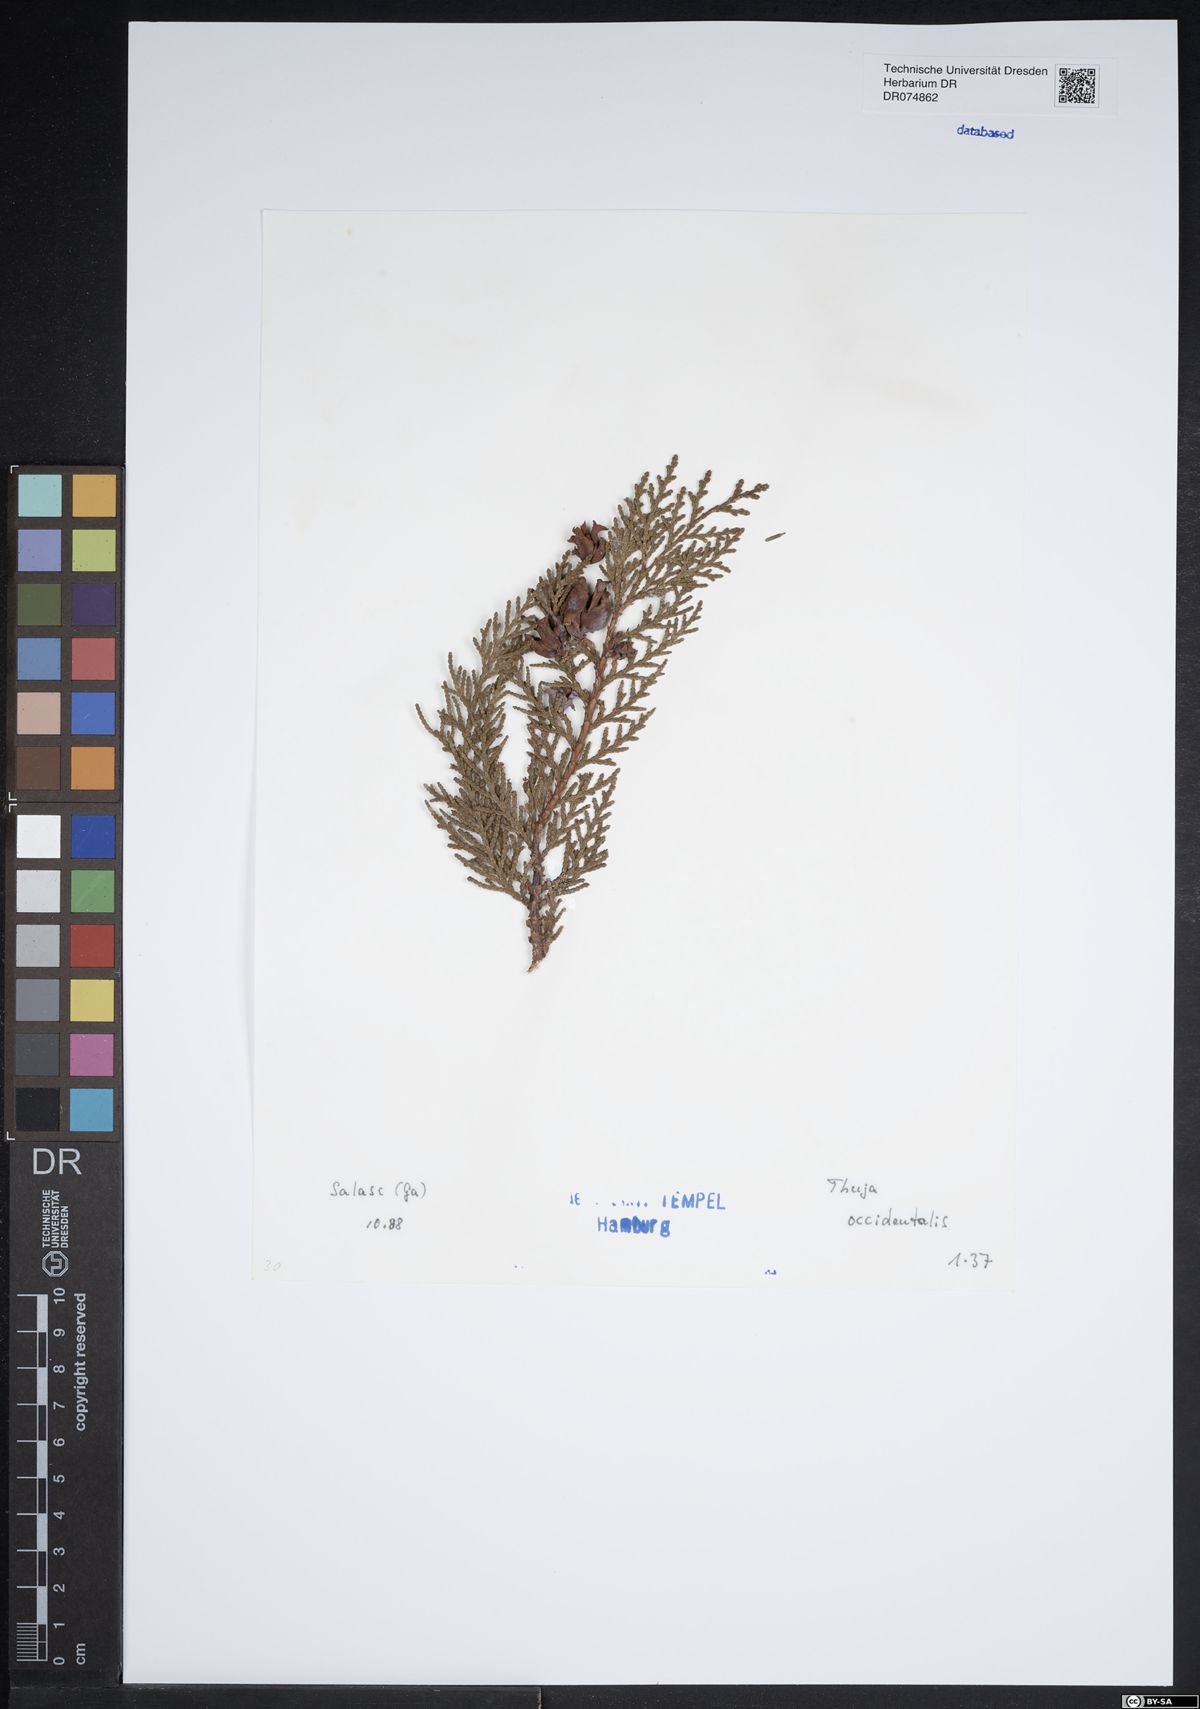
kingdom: Plantae
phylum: Tracheophyta
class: Pinopsida
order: Pinales
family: Cupressaceae
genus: Thuja
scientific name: Thuja occidentalis
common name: Northern white-cedar
